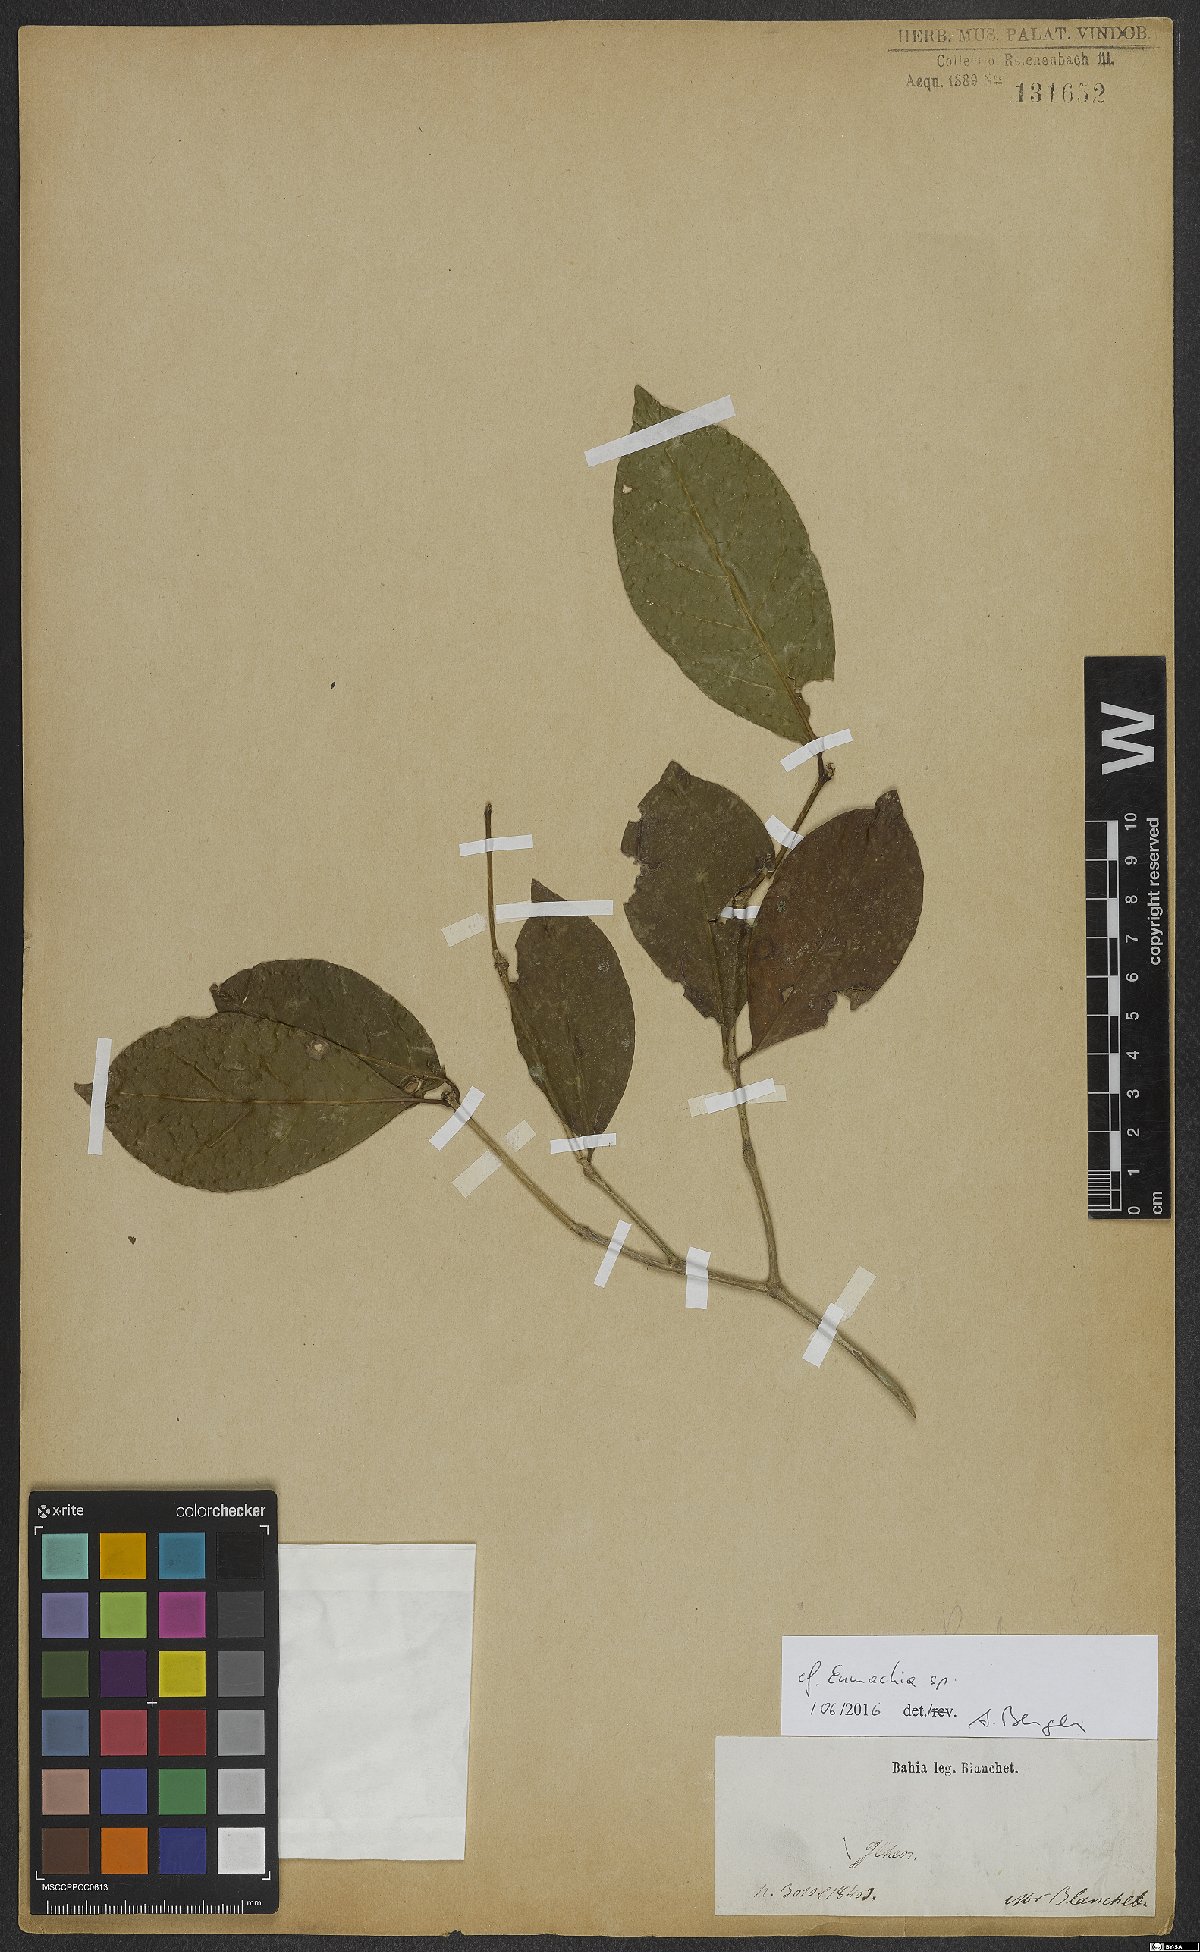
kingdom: Plantae
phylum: Tracheophyta
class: Magnoliopsida
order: Gentianales
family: Rubiaceae
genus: Eumachia
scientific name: Eumachia
